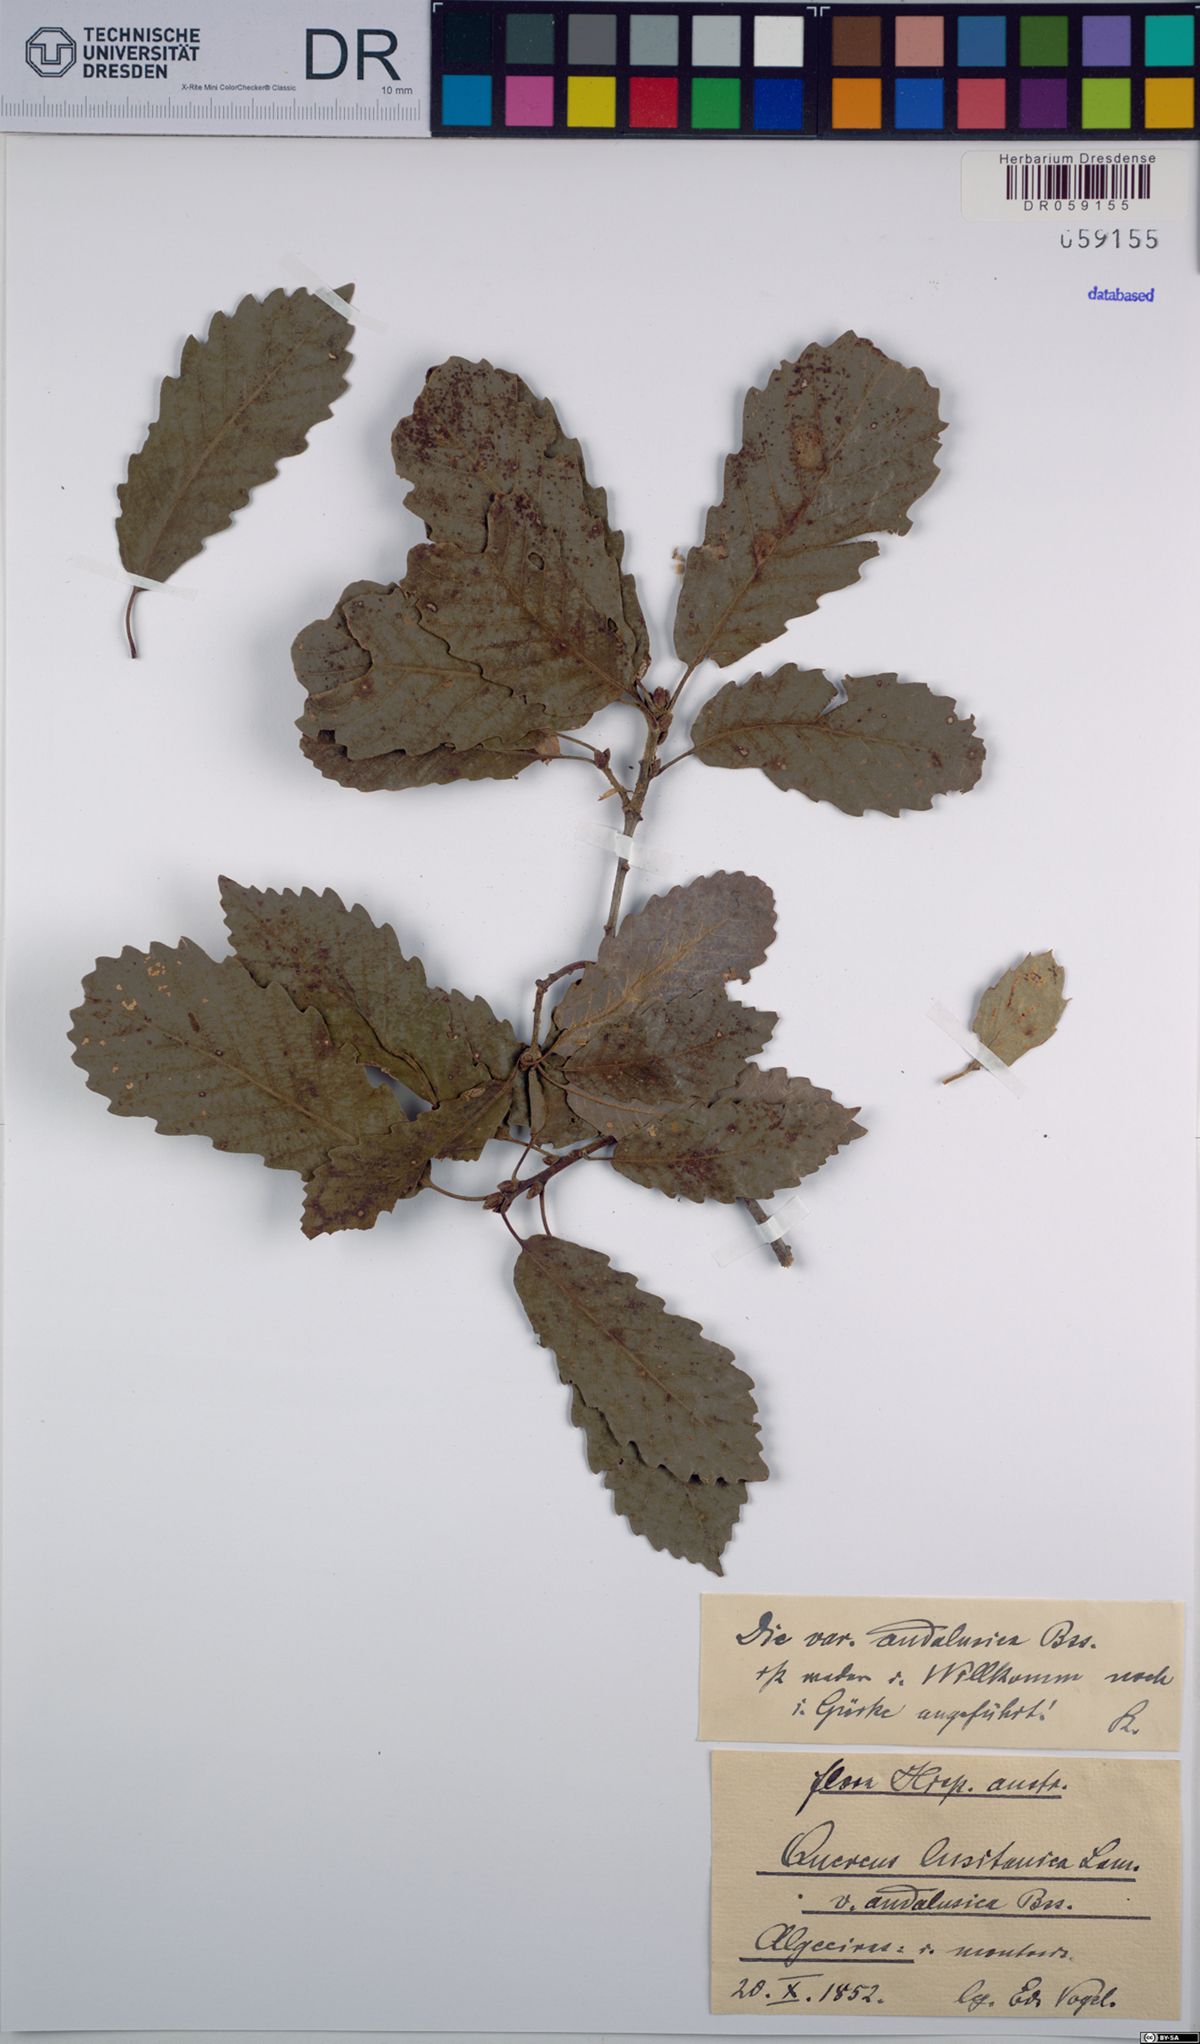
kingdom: Plantae
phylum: Tracheophyta
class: Magnoliopsida
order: Fagales
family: Fagaceae
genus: Quercus
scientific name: Quercus lusitanica
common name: Scrub gall oak
